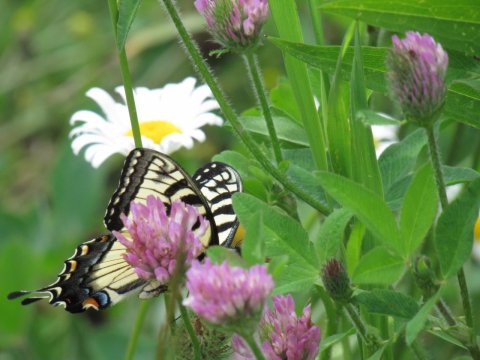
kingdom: Animalia
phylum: Arthropoda
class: Insecta
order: Lepidoptera
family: Papilionidae
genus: Pterourus
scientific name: Pterourus
